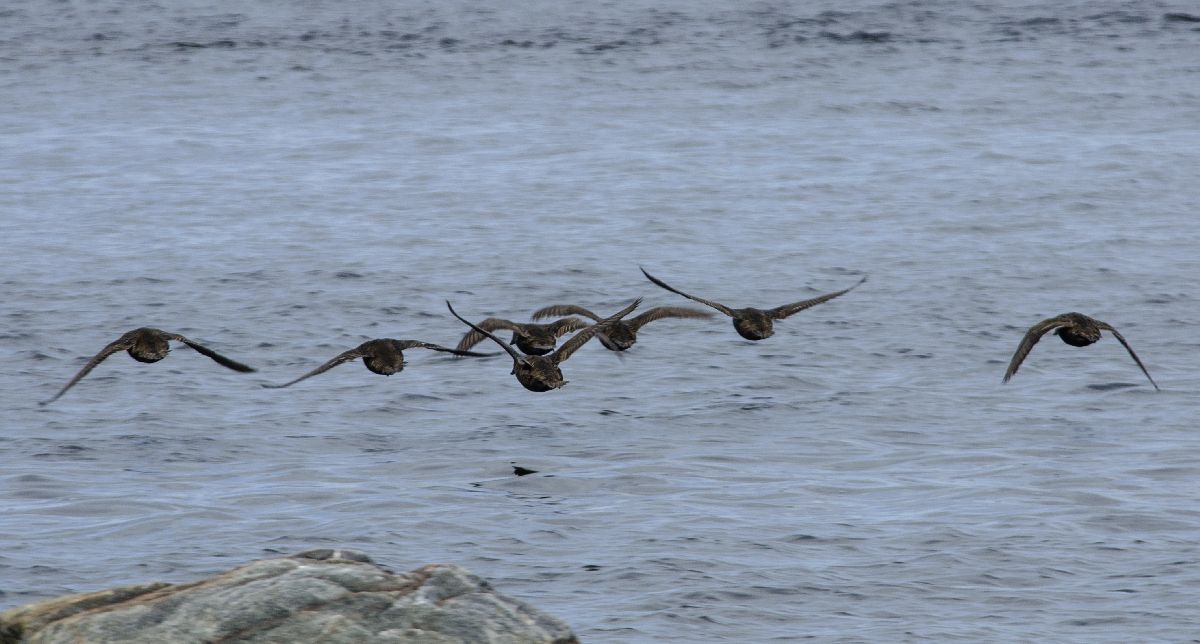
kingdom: Animalia
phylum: Chordata
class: Aves
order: Anseriformes
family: Anatidae
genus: Somateria
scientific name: Somateria mollissima
